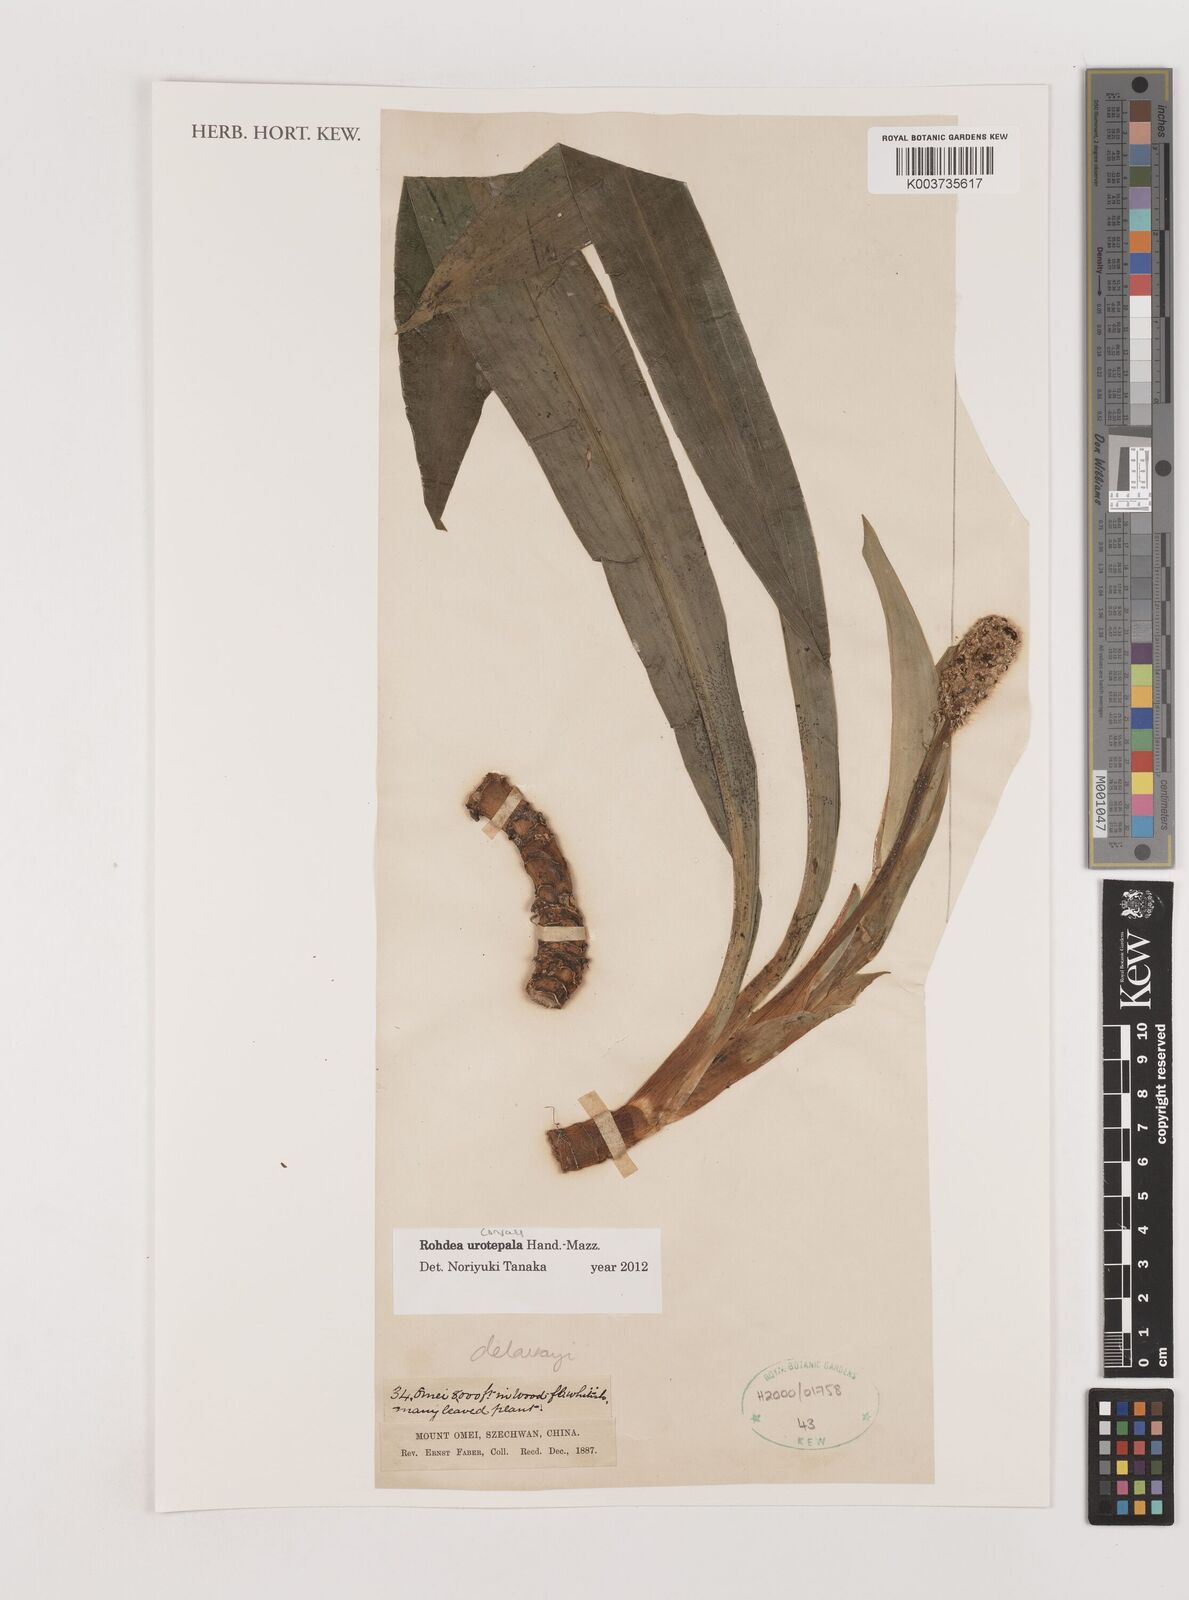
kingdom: Plantae
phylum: Tracheophyta
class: Liliopsida
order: Asparagales
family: Asparagaceae
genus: Rohdea
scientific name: Rohdea urotepala
